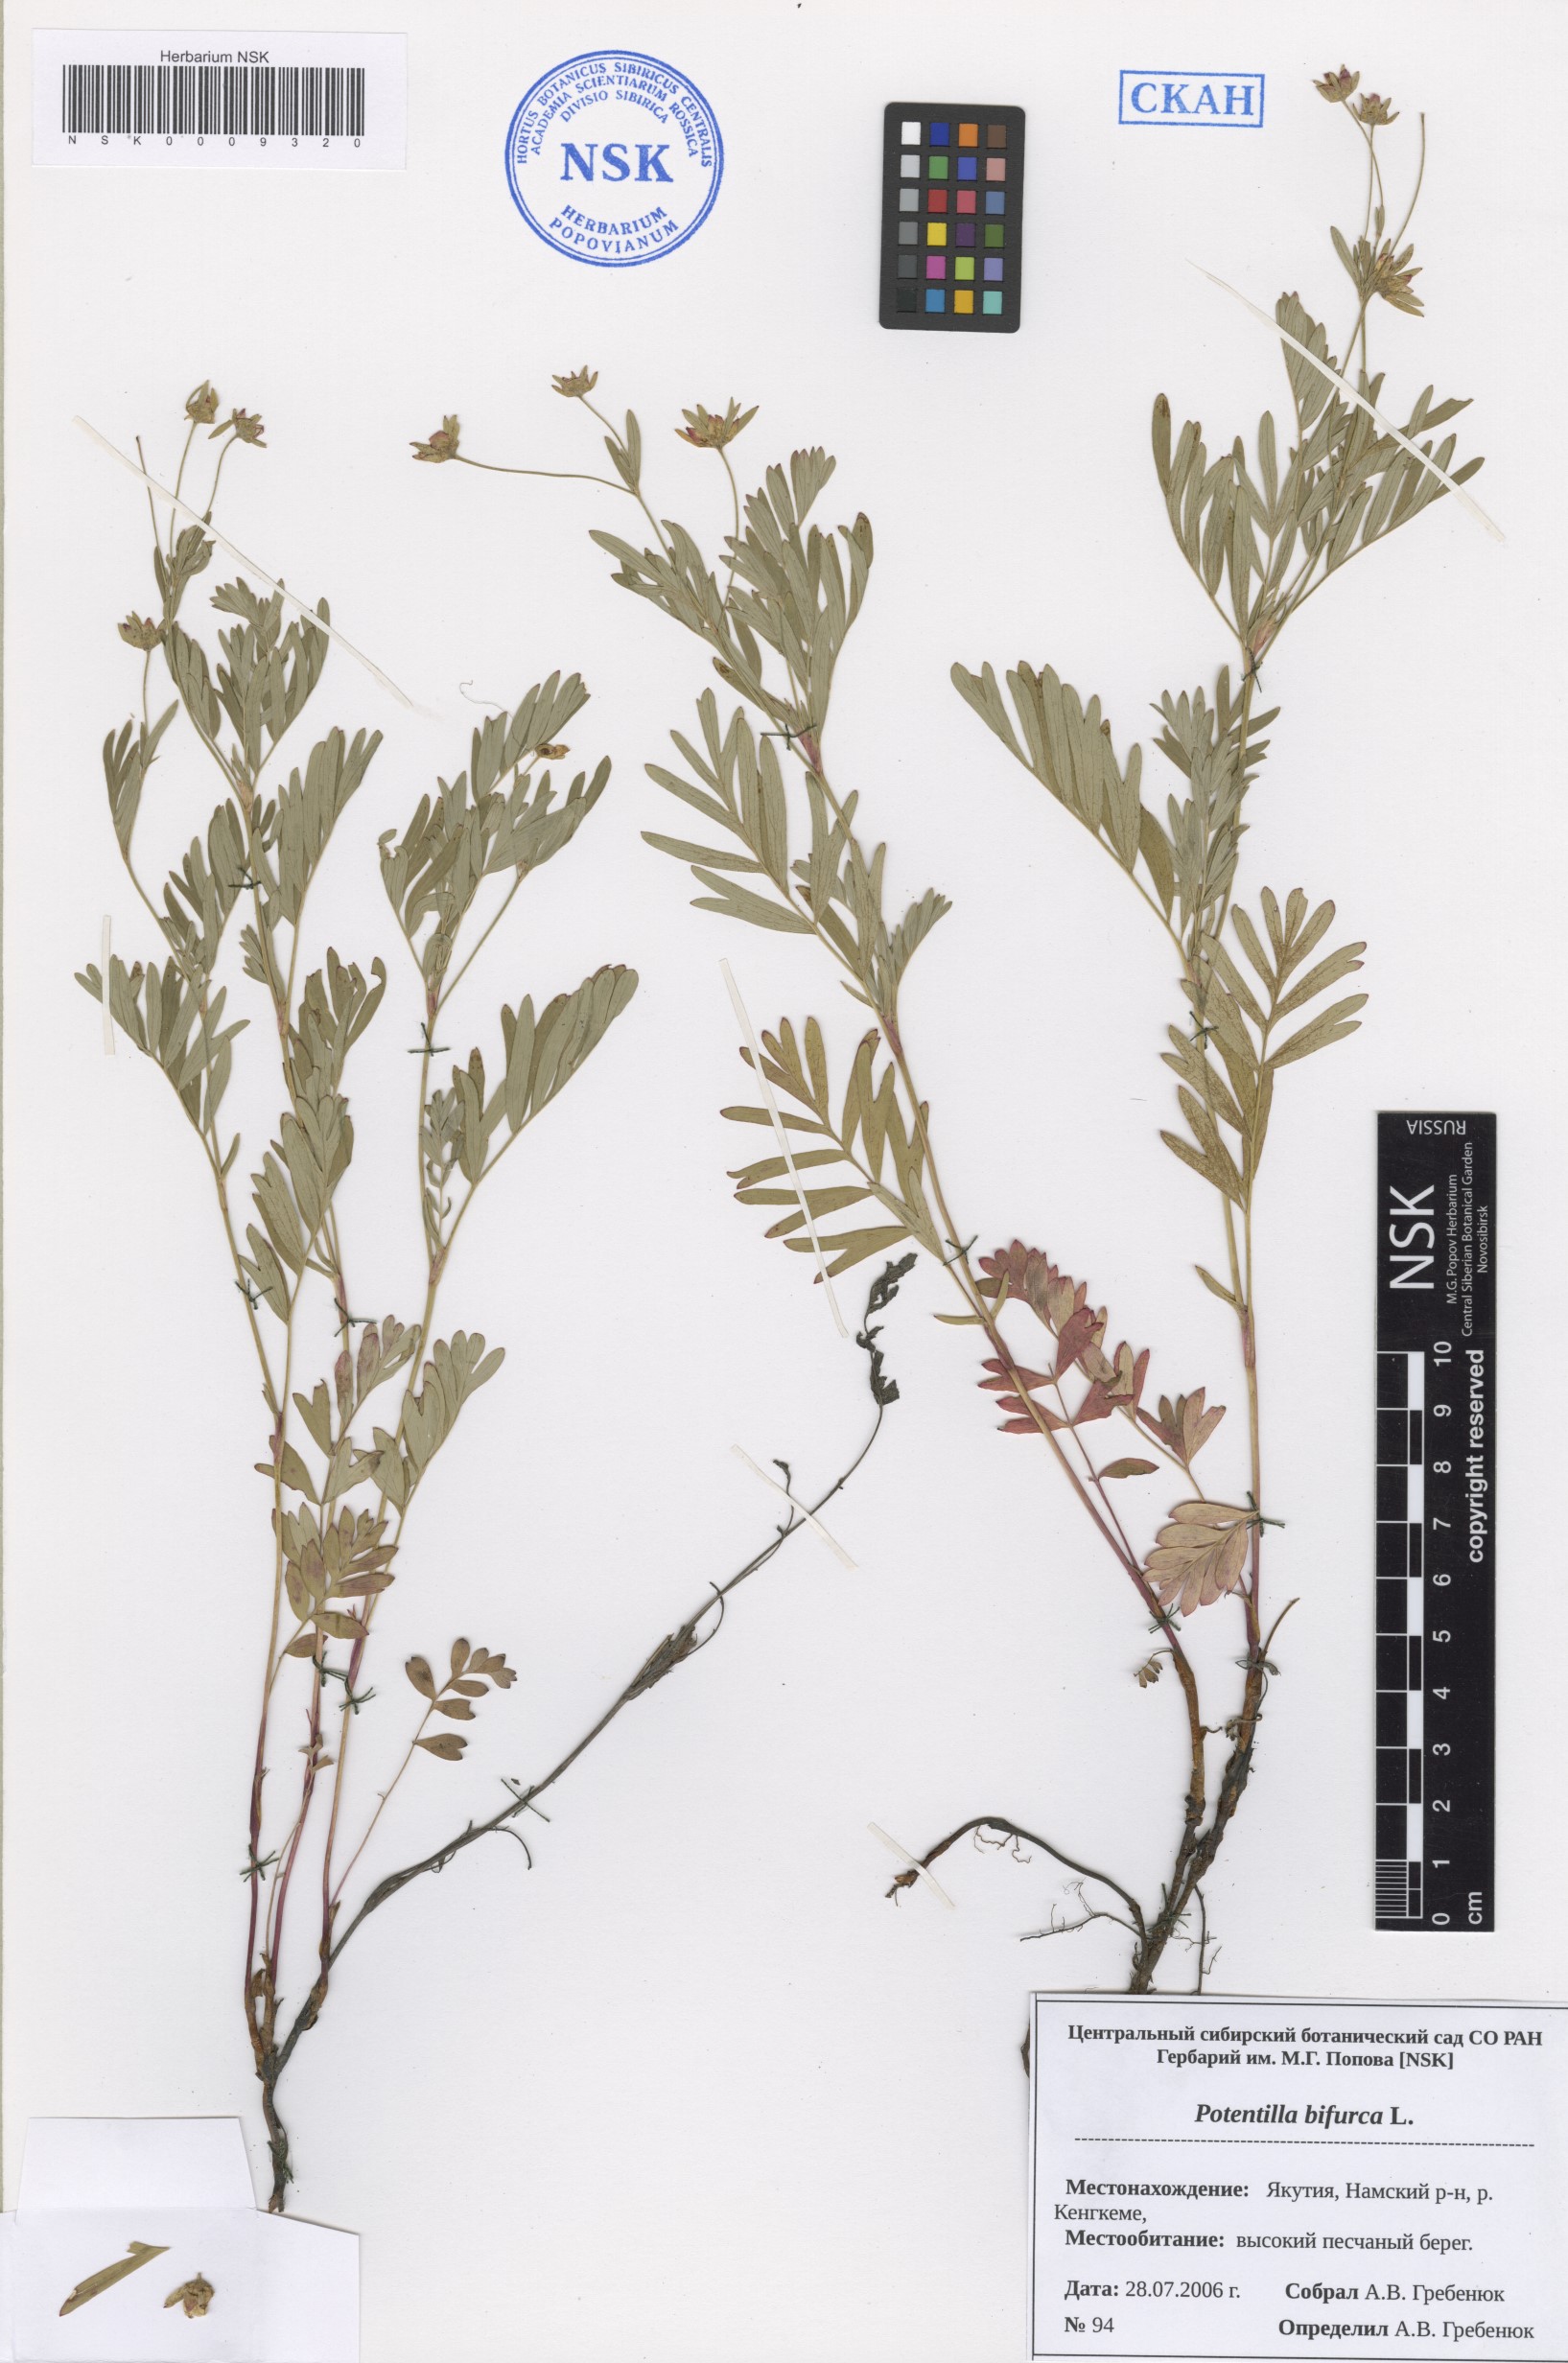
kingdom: Plantae
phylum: Tracheophyta
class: Magnoliopsida
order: Rosales
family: Rosaceae
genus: Sibbaldianthe
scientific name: Sibbaldianthe bifurca
